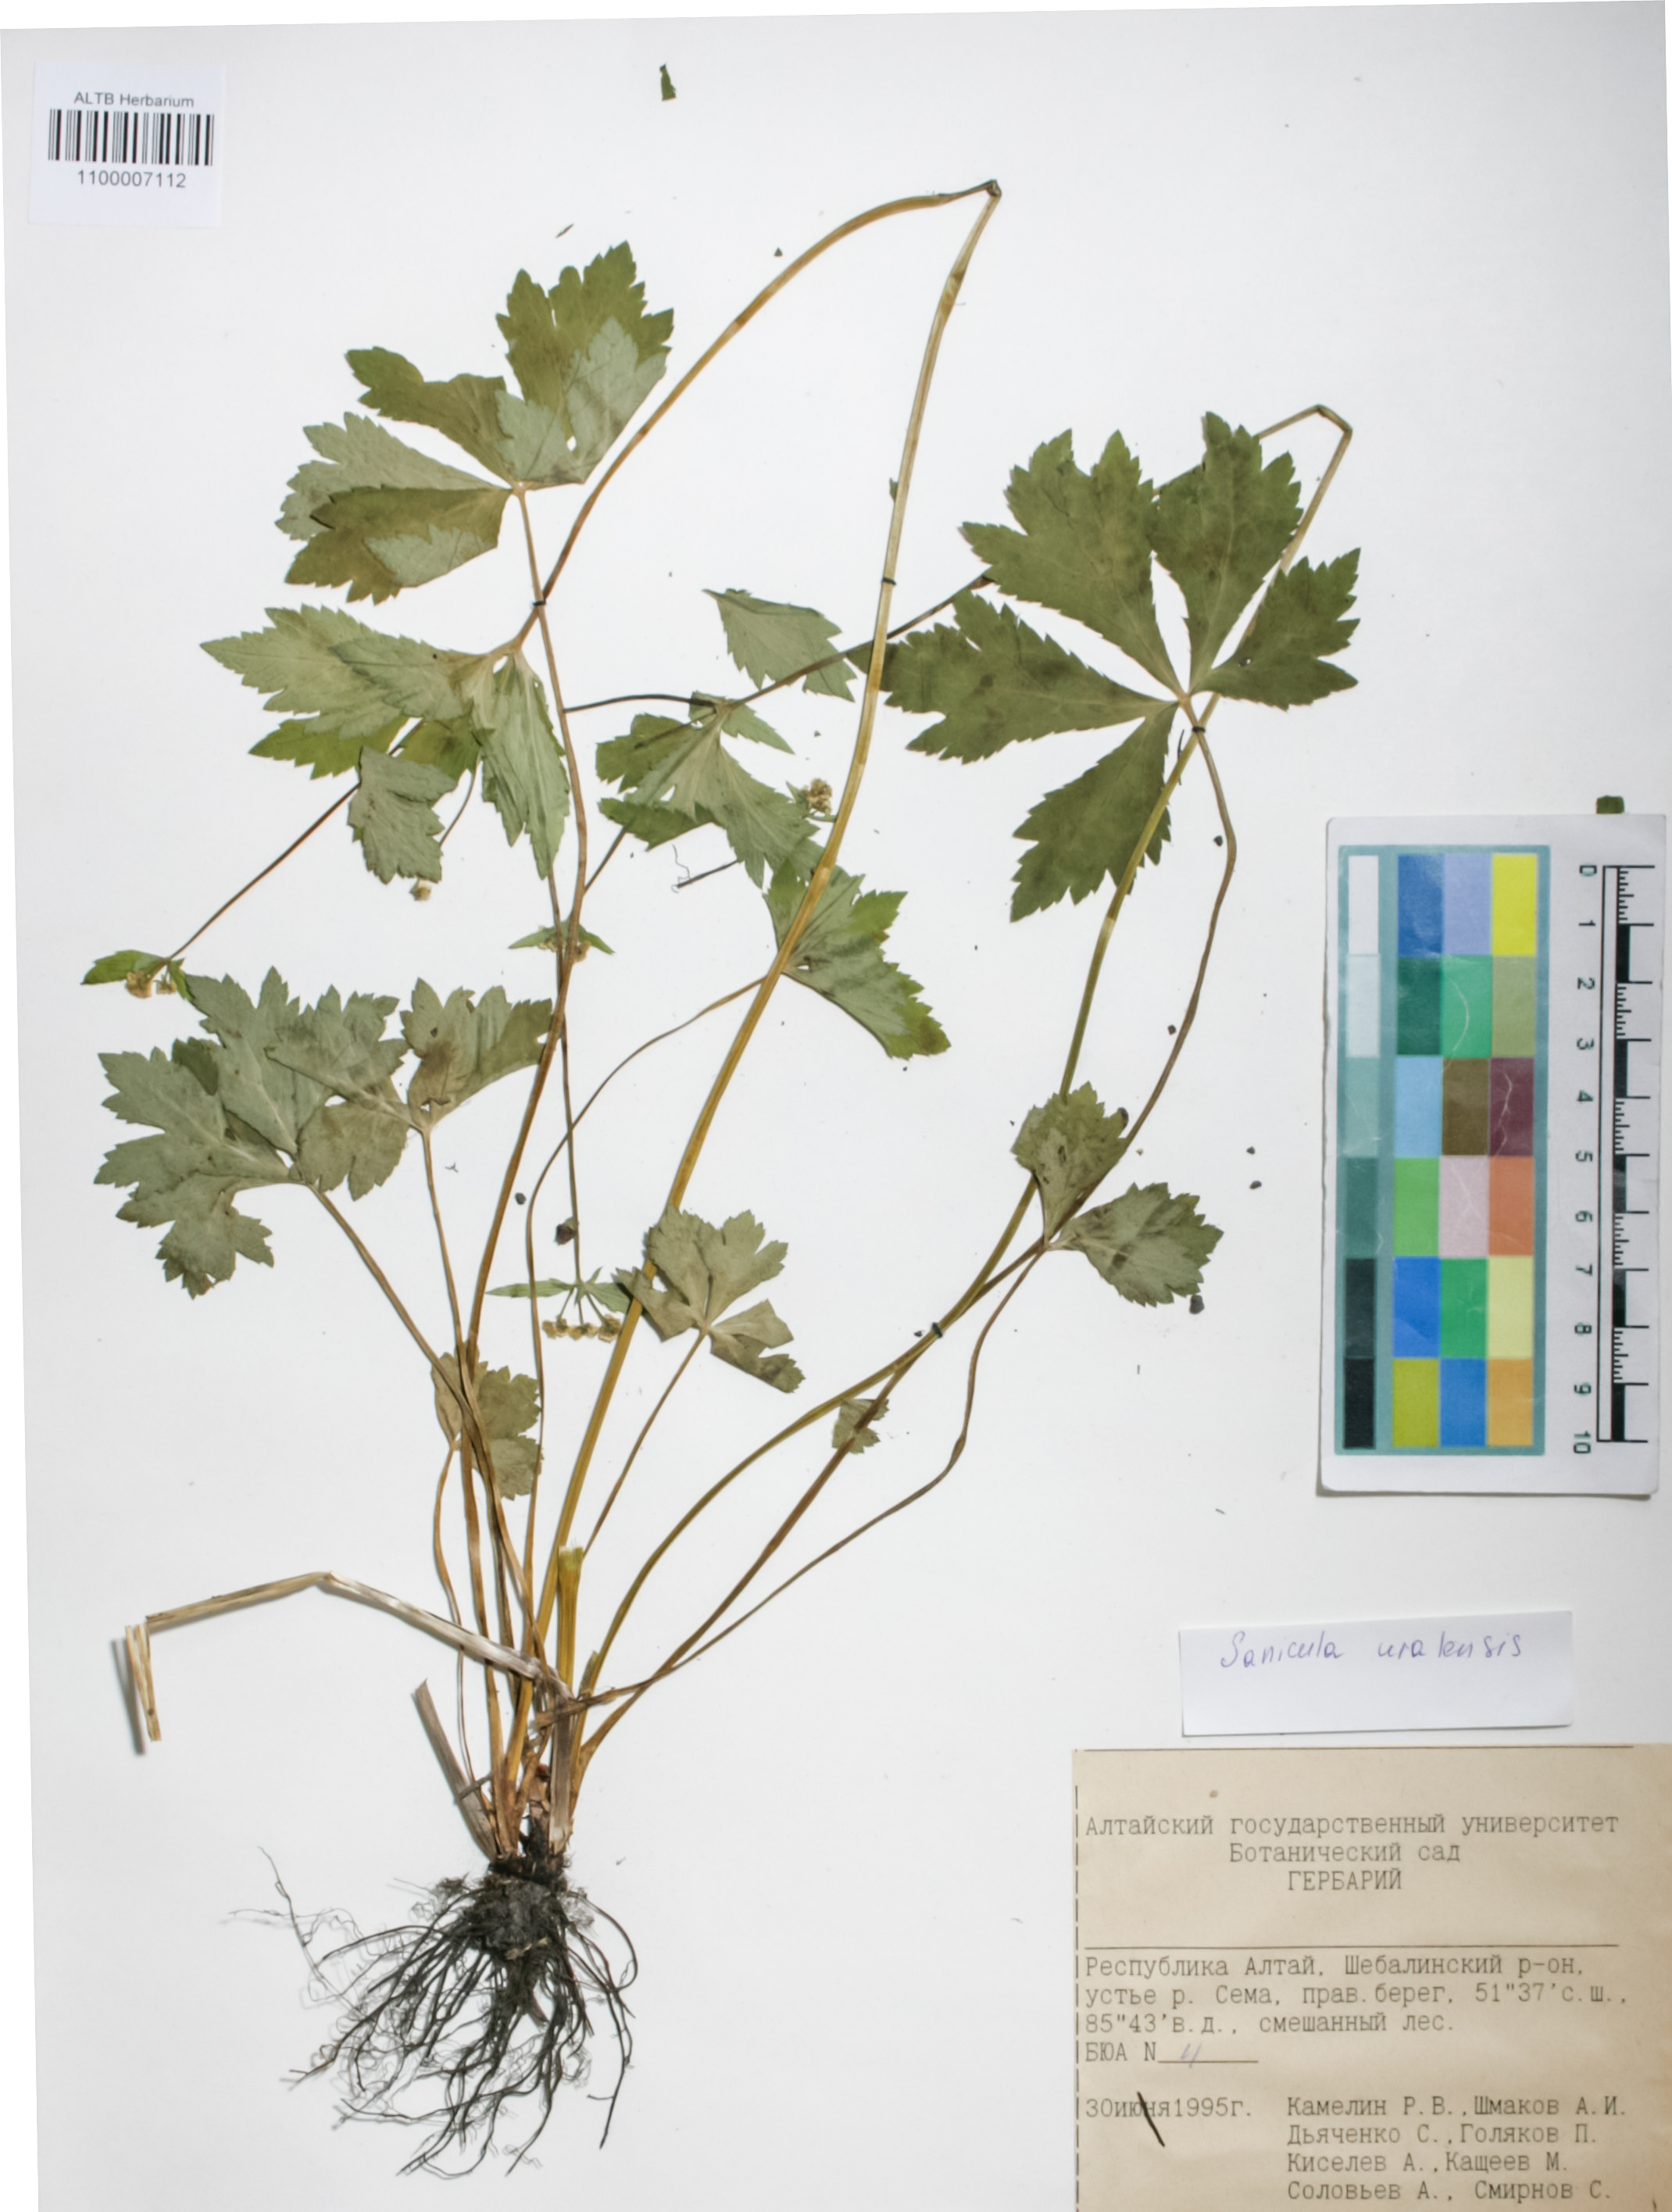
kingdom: Plantae
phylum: Tracheophyta
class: Magnoliopsida
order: Apiales
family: Apiaceae
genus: Sanicula
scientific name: Sanicula giraldii
